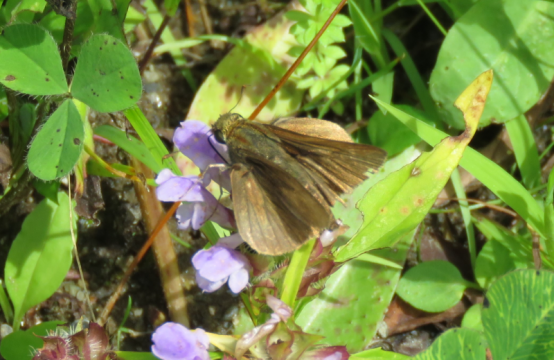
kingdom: Animalia
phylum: Arthropoda
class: Insecta
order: Lepidoptera
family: Hesperiidae
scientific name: Hesperiidae
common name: Skippers
